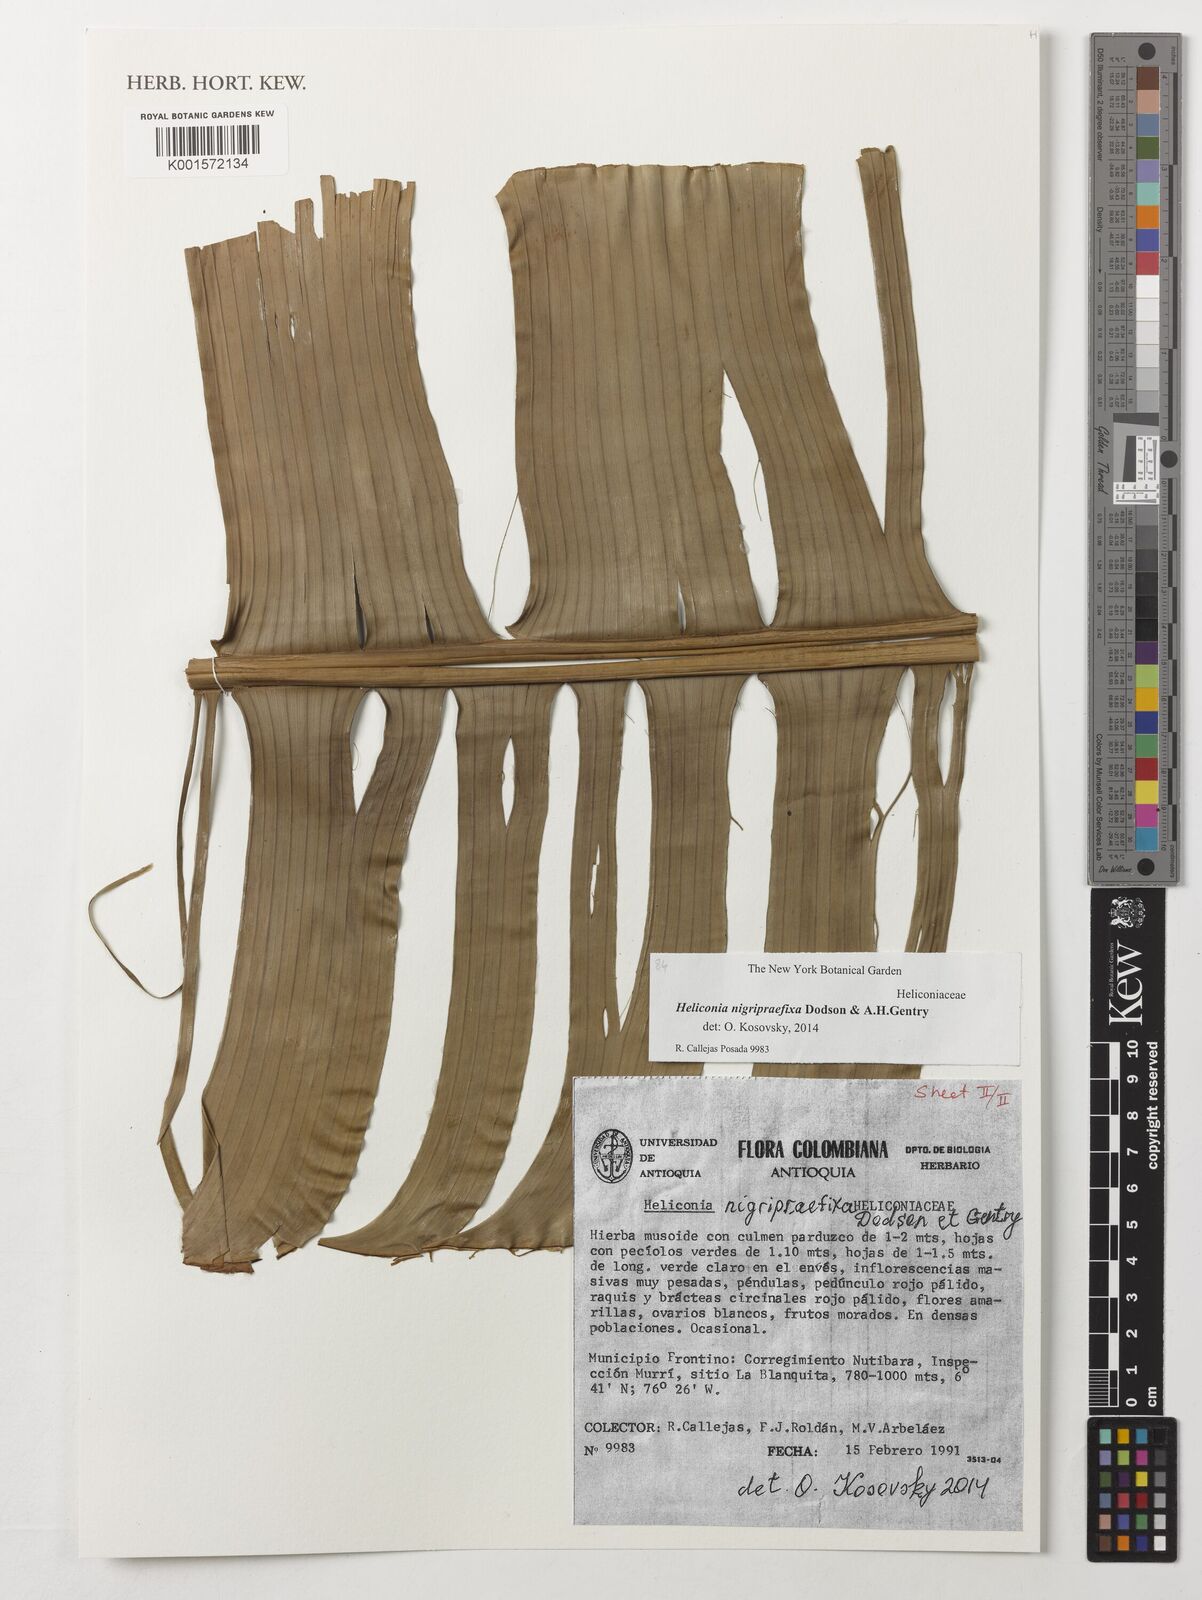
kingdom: Plantae
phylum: Tracheophyta
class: Liliopsida
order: Zingiberales
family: Heliconiaceae
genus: Heliconia
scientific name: Heliconia nigripraefixa
